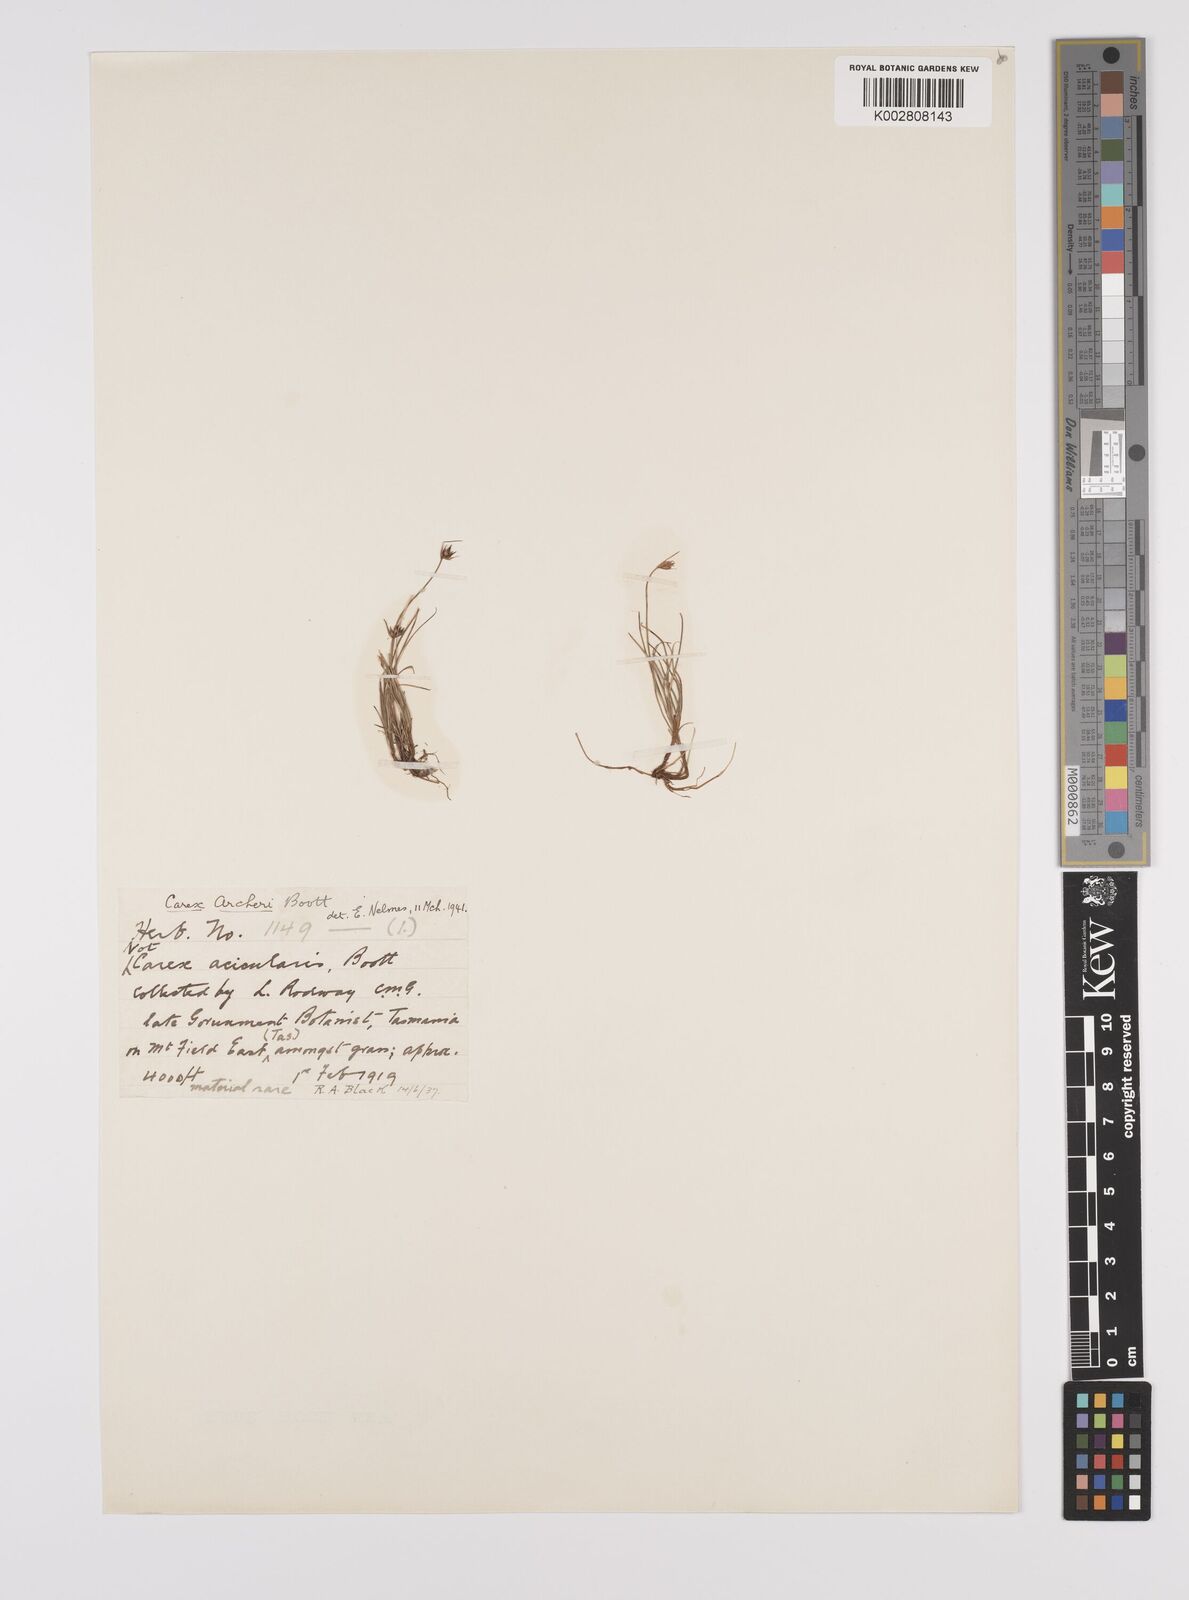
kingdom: Plantae
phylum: Tracheophyta
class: Liliopsida
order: Poales
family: Cyperaceae
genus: Carex
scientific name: Carex acicularis
